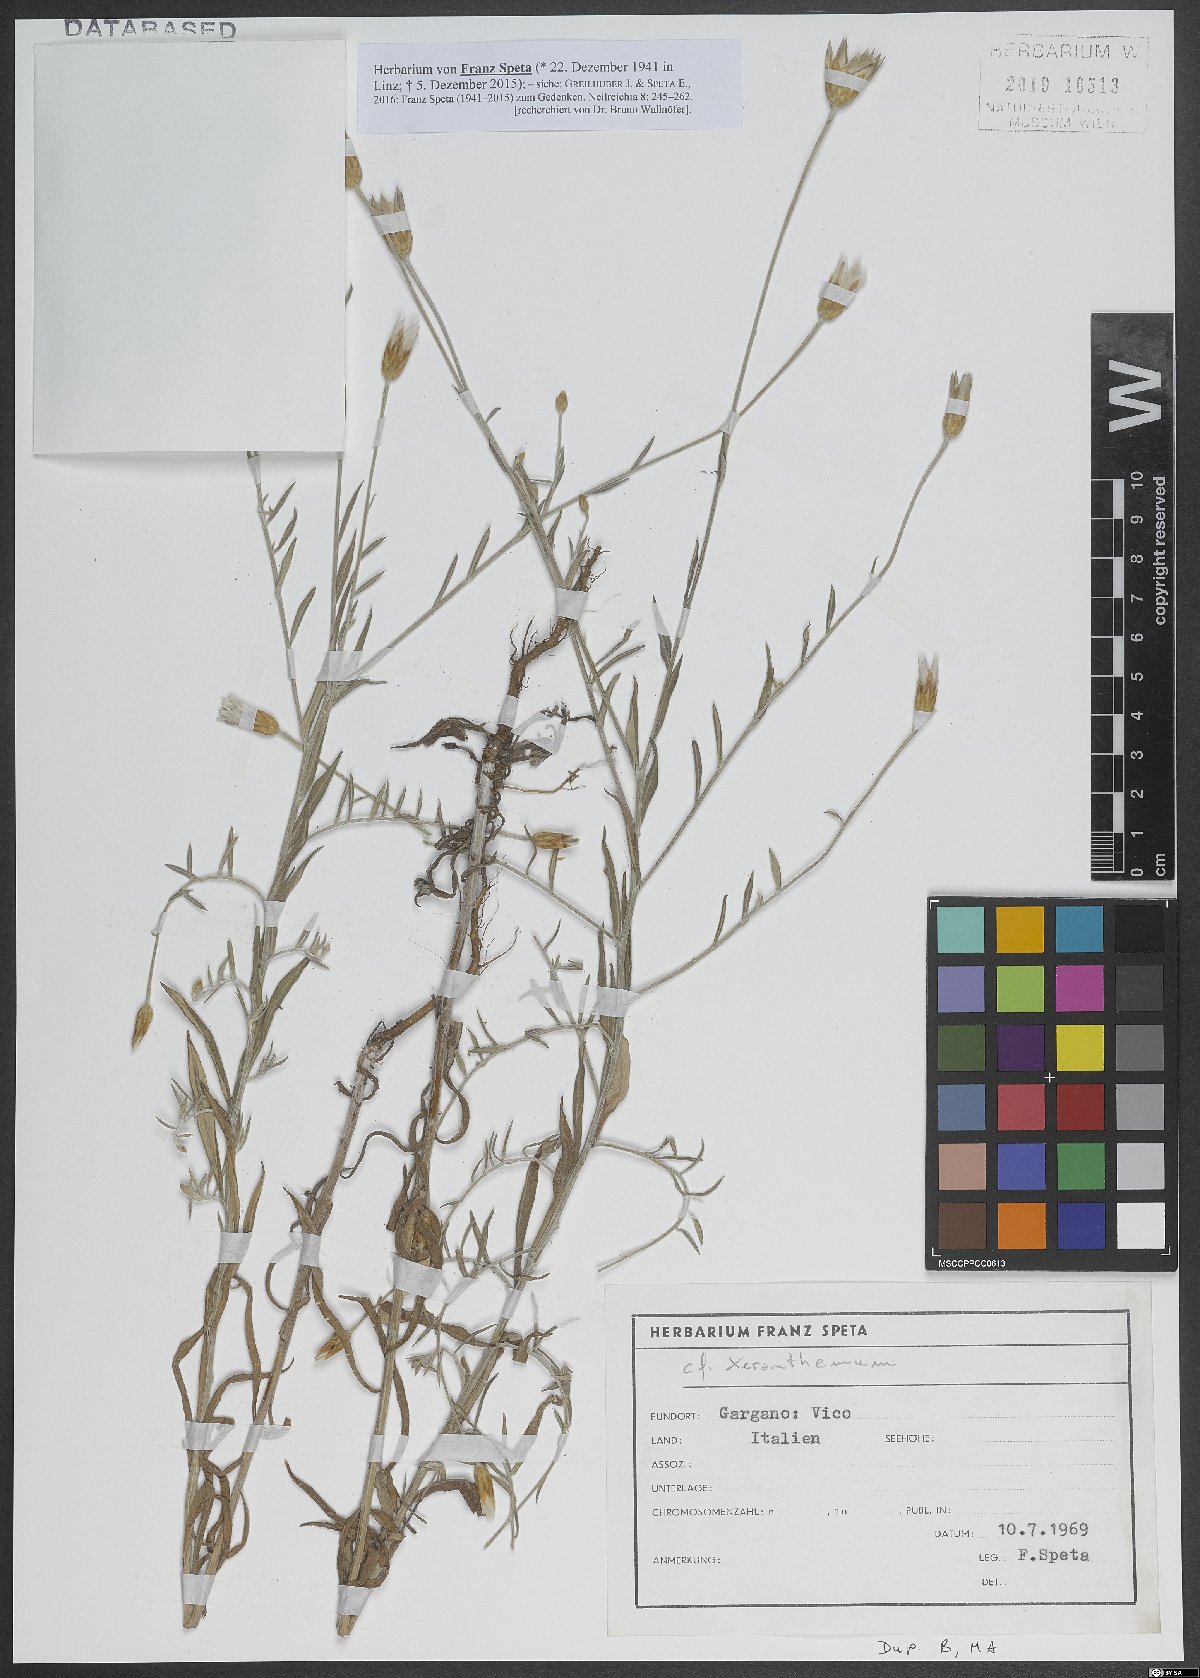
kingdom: Plantae
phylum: Tracheophyta
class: Magnoliopsida
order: Asterales
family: Asteraceae
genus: Xeranthemum
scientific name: Xeranthemum
